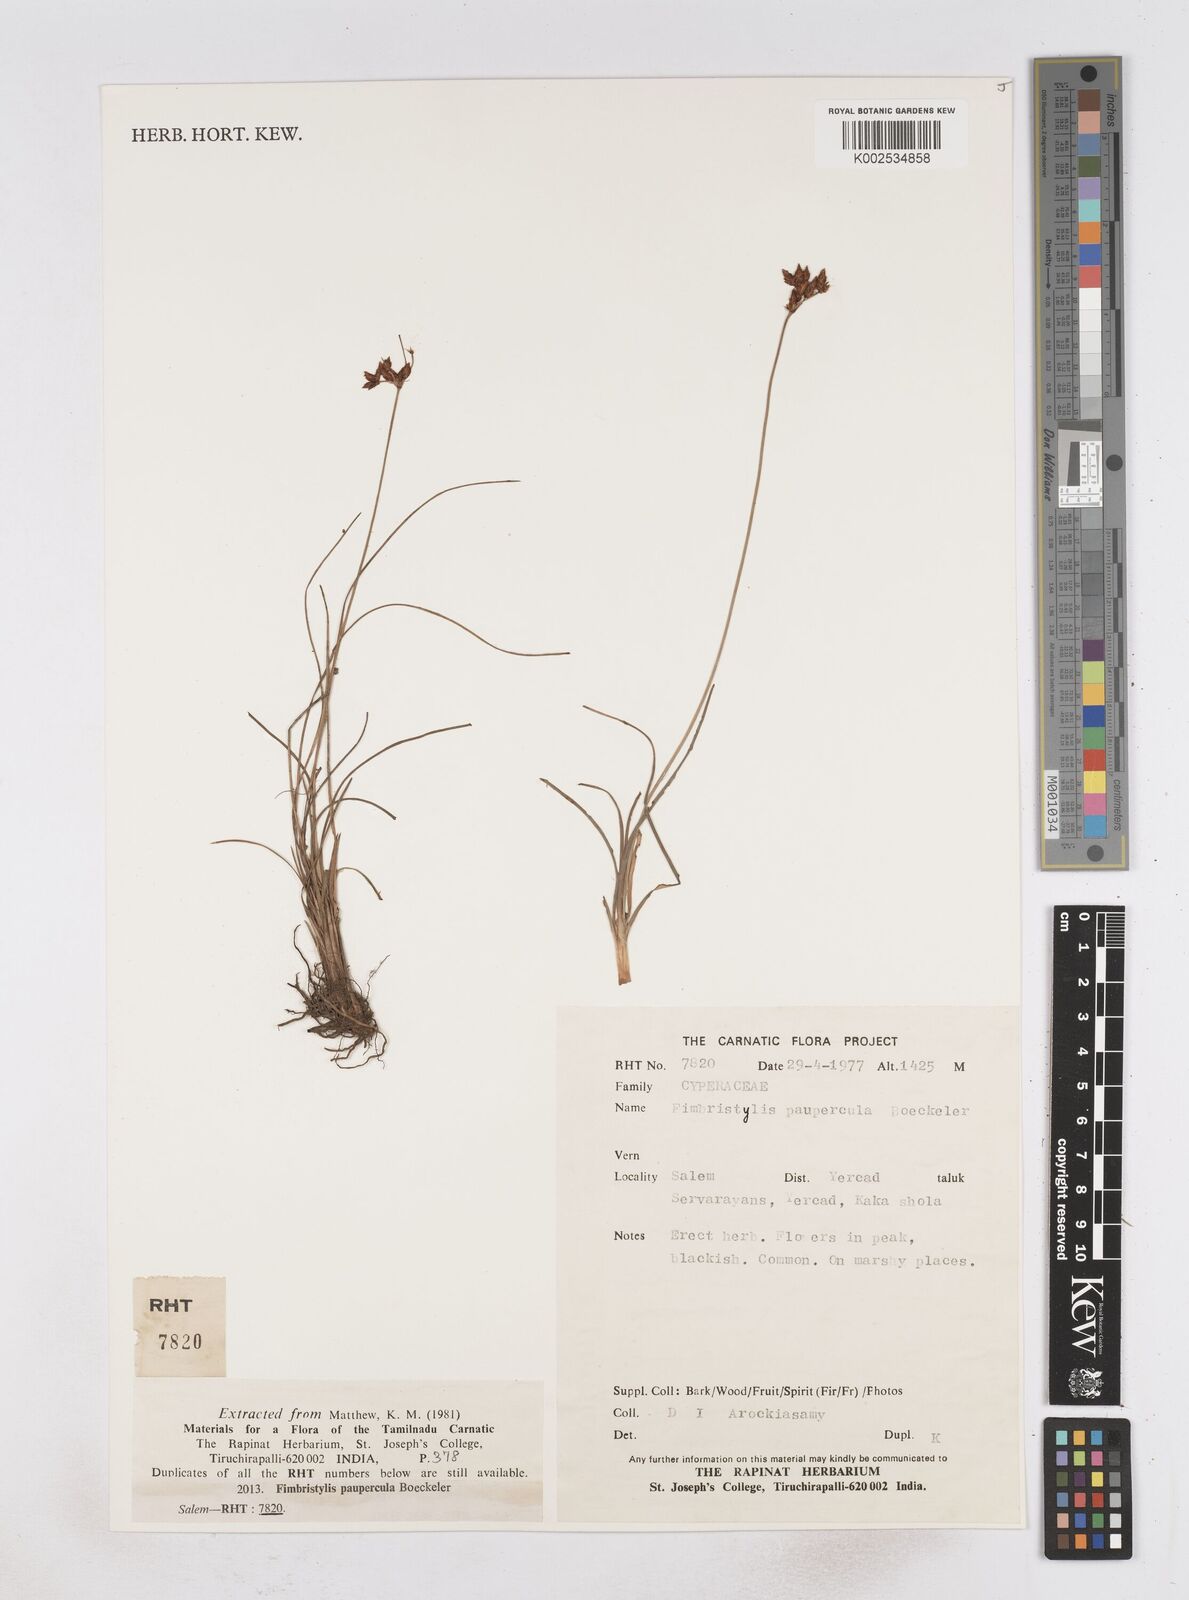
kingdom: Plantae
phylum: Tracheophyta
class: Liliopsida
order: Poales
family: Cyperaceae
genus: Fimbristylis
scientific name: Fimbristylis paupercula
